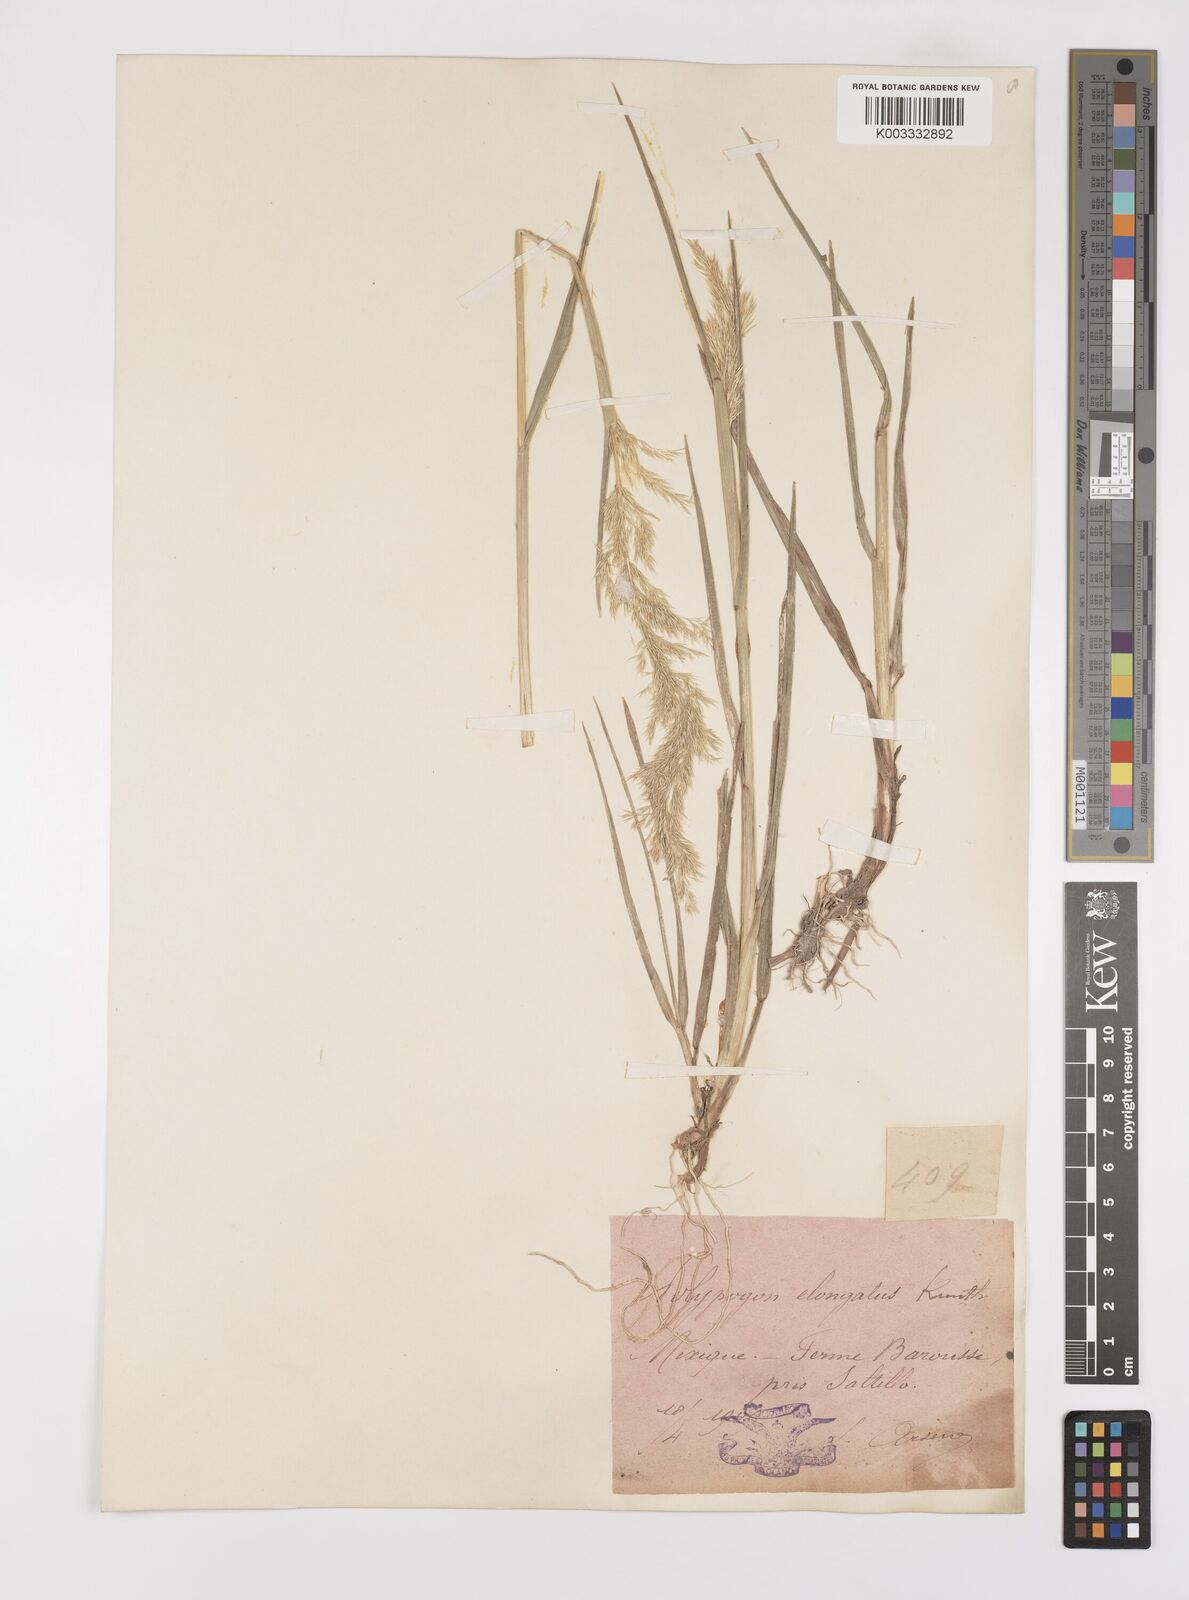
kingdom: Plantae
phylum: Tracheophyta
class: Liliopsida
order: Poales
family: Poaceae
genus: Polypogon
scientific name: Polypogon elongatus
